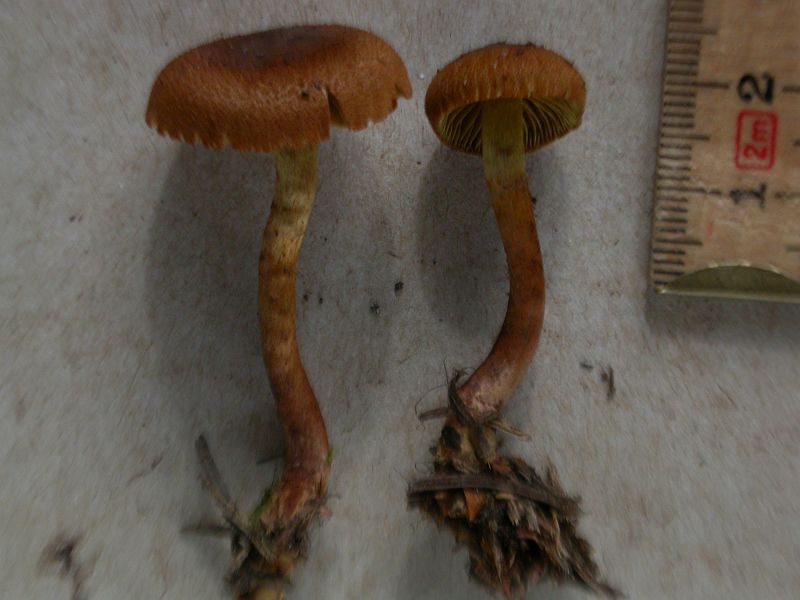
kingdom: Fungi
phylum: Basidiomycota
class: Agaricomycetes
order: Agaricales
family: Cortinariaceae
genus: Cortinarius
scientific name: Cortinarius bataillei
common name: orangefodet slørhat
